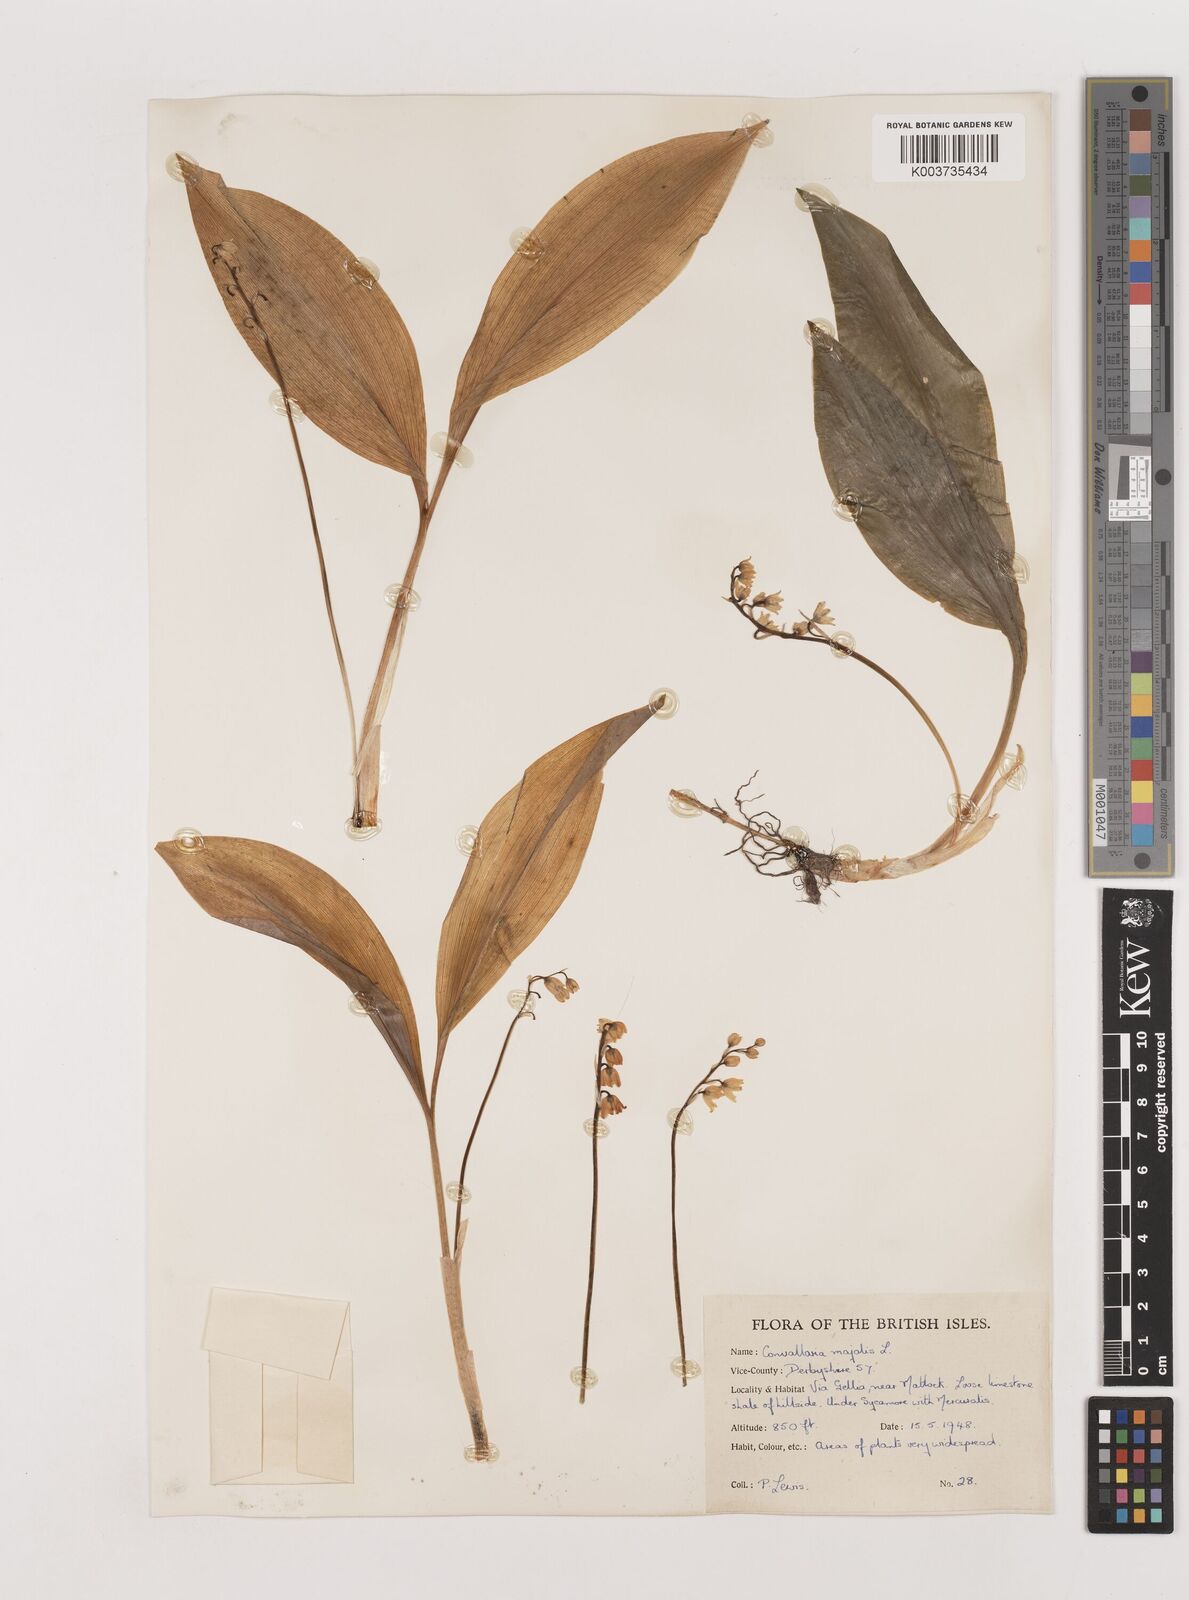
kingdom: Plantae
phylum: Tracheophyta
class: Liliopsida
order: Asparagales
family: Asparagaceae
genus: Convallaria
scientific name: Convallaria majalis
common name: Lily-of-the-valley
